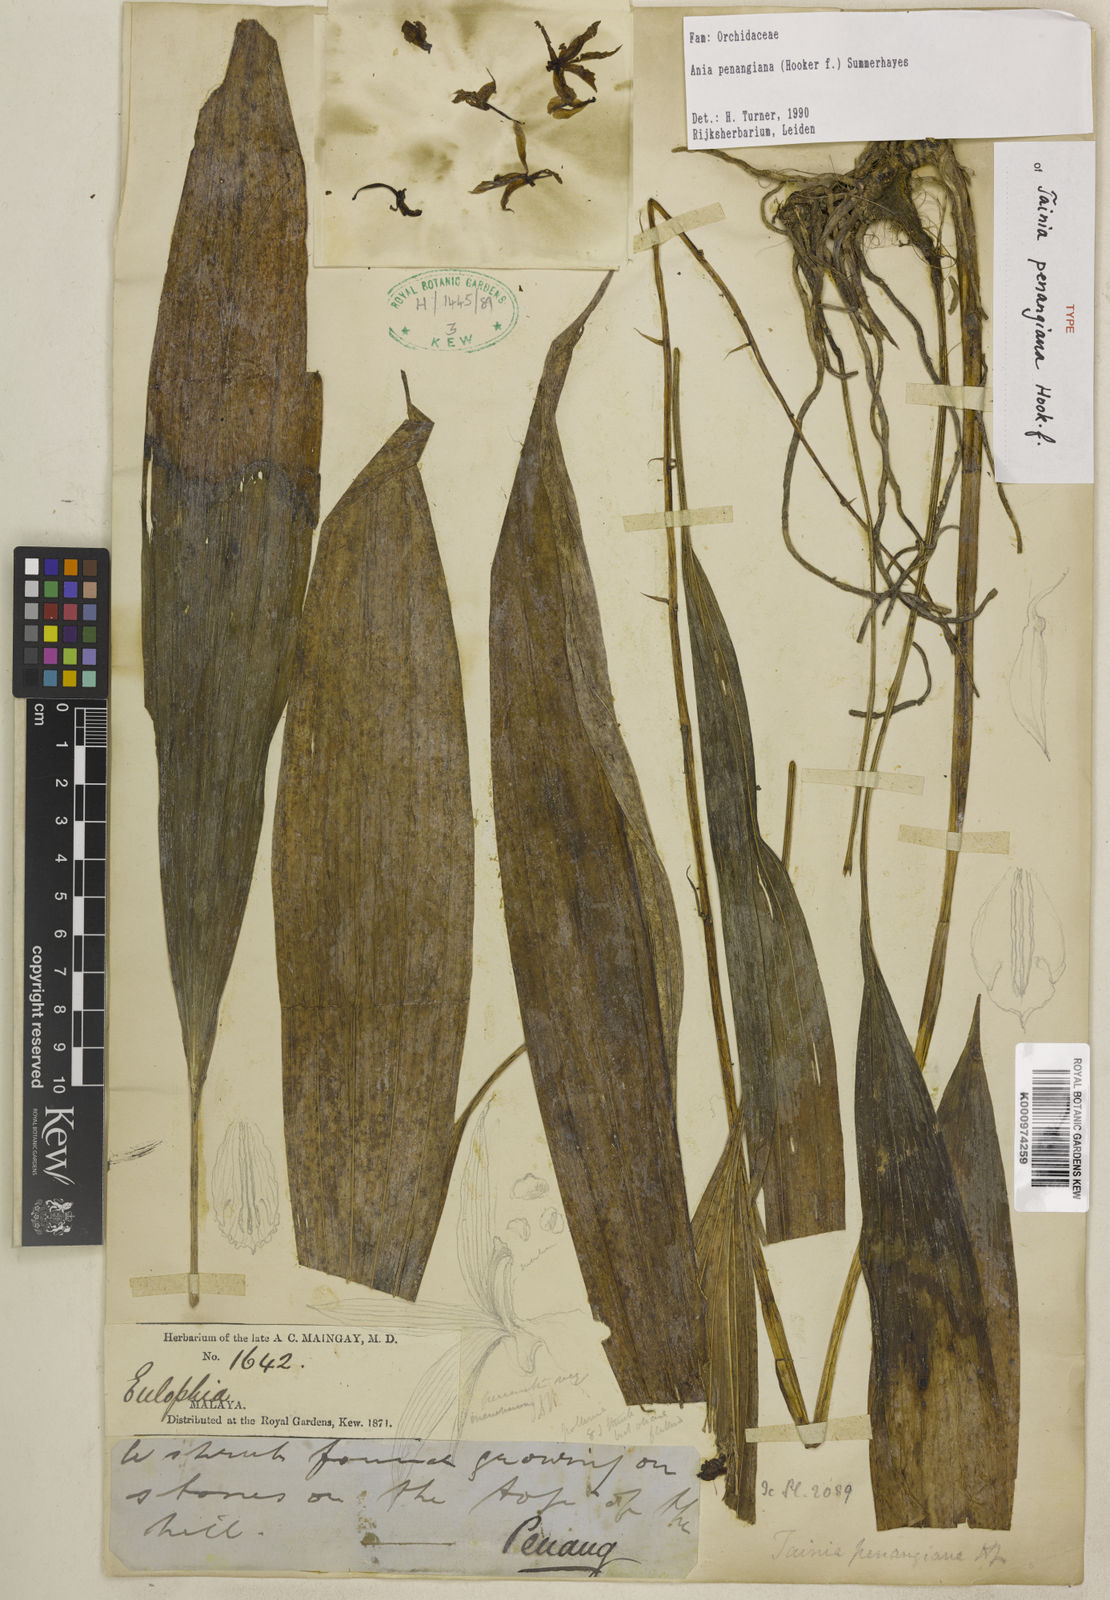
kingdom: Plantae
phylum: Tracheophyta
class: Liliopsida
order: Asparagales
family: Orchidaceae
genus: Ania
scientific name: Ania penangiana
